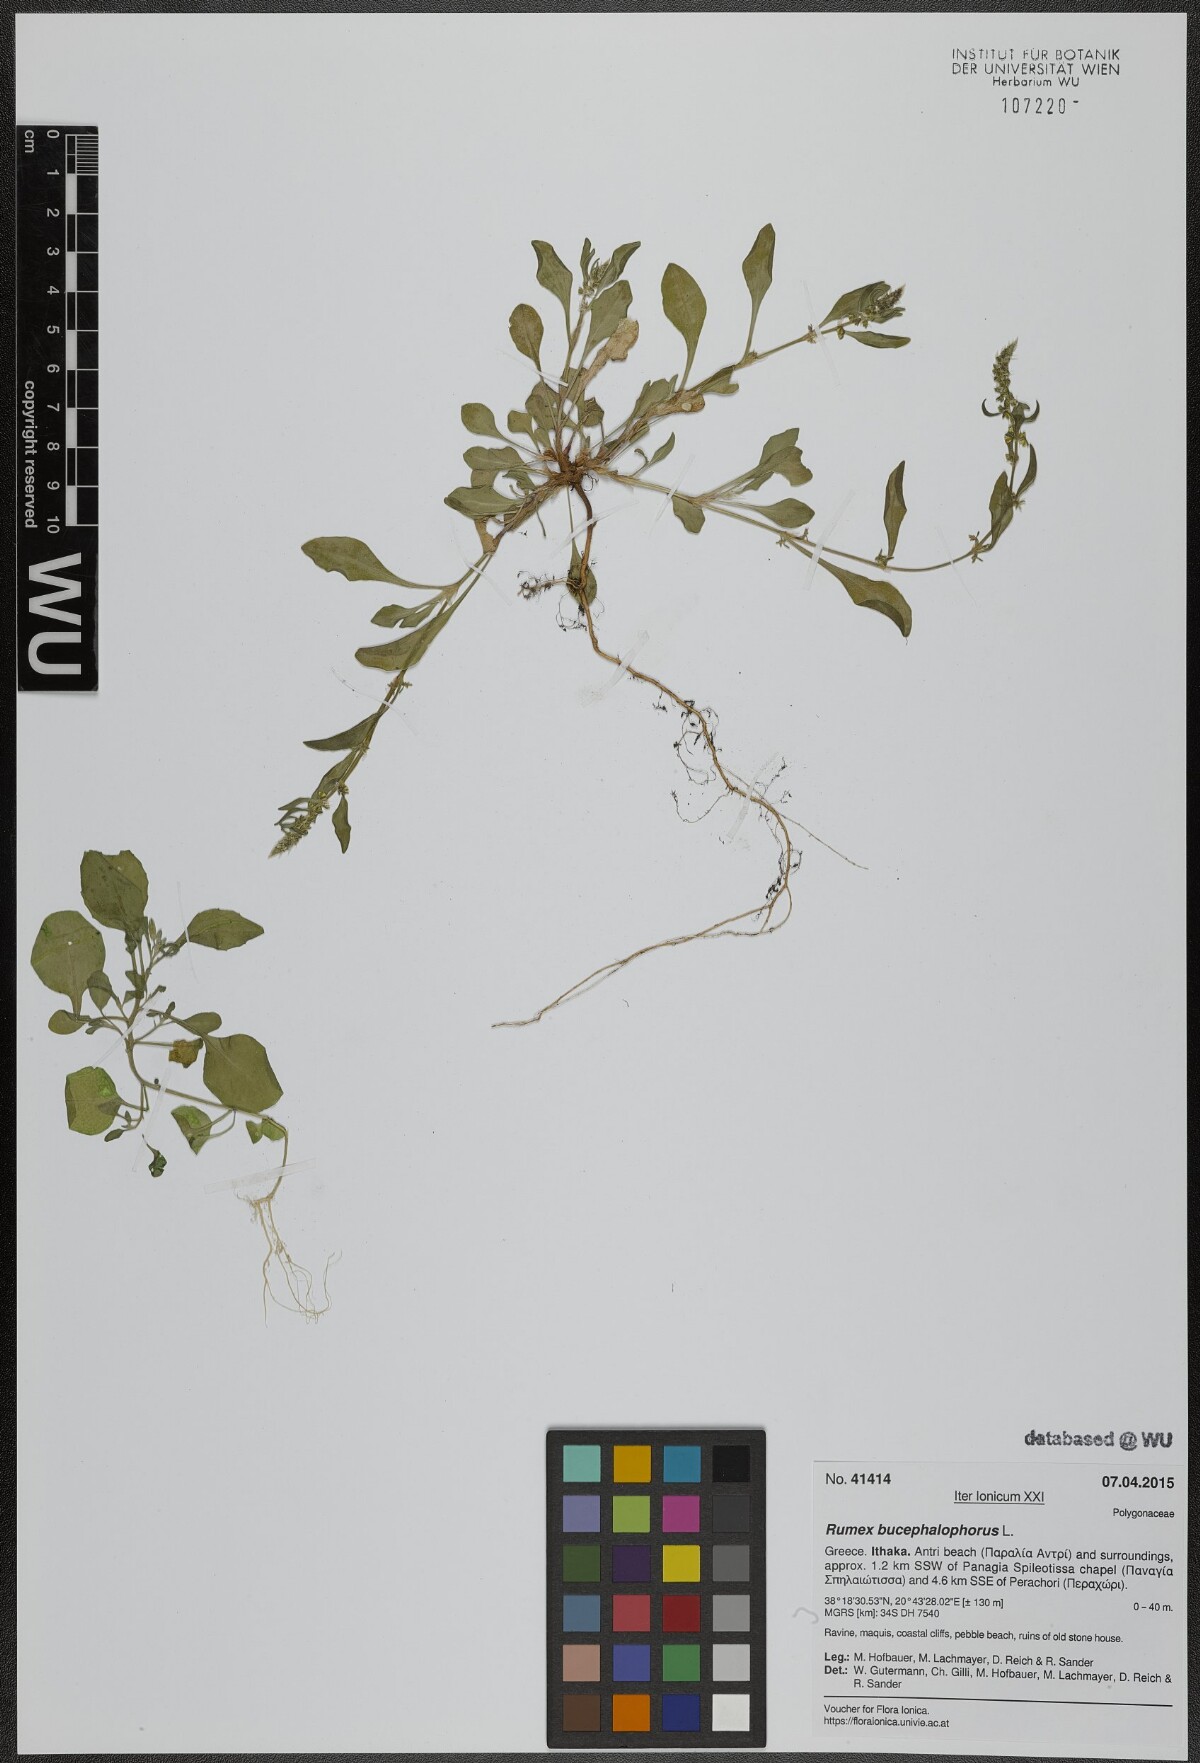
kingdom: Plantae
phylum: Tracheophyta
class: Magnoliopsida
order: Caryophyllales
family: Polygonaceae
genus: Rumex
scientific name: Rumex bucephalophorus
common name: Red dock
